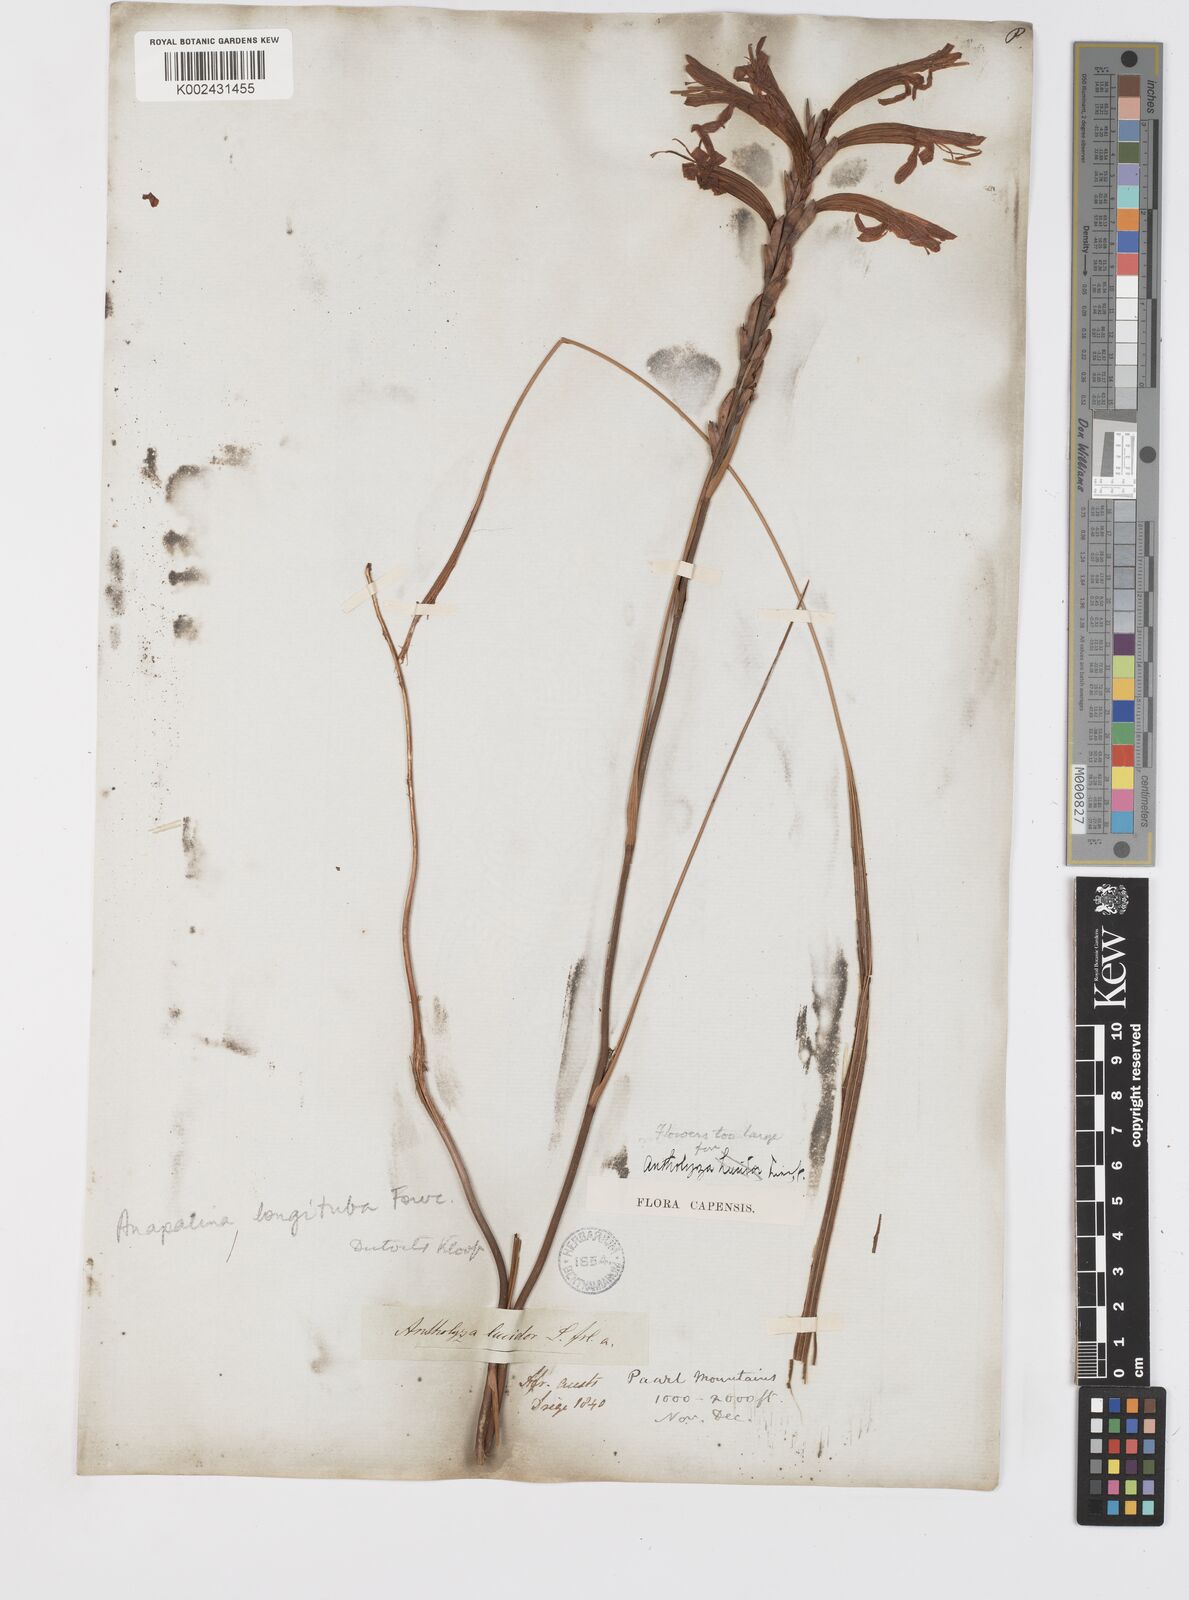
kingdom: Plantae
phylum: Tracheophyta
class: Liliopsida
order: Asparagales
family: Iridaceae
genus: Tritoniopsis
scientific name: Tritoniopsis antholyza
